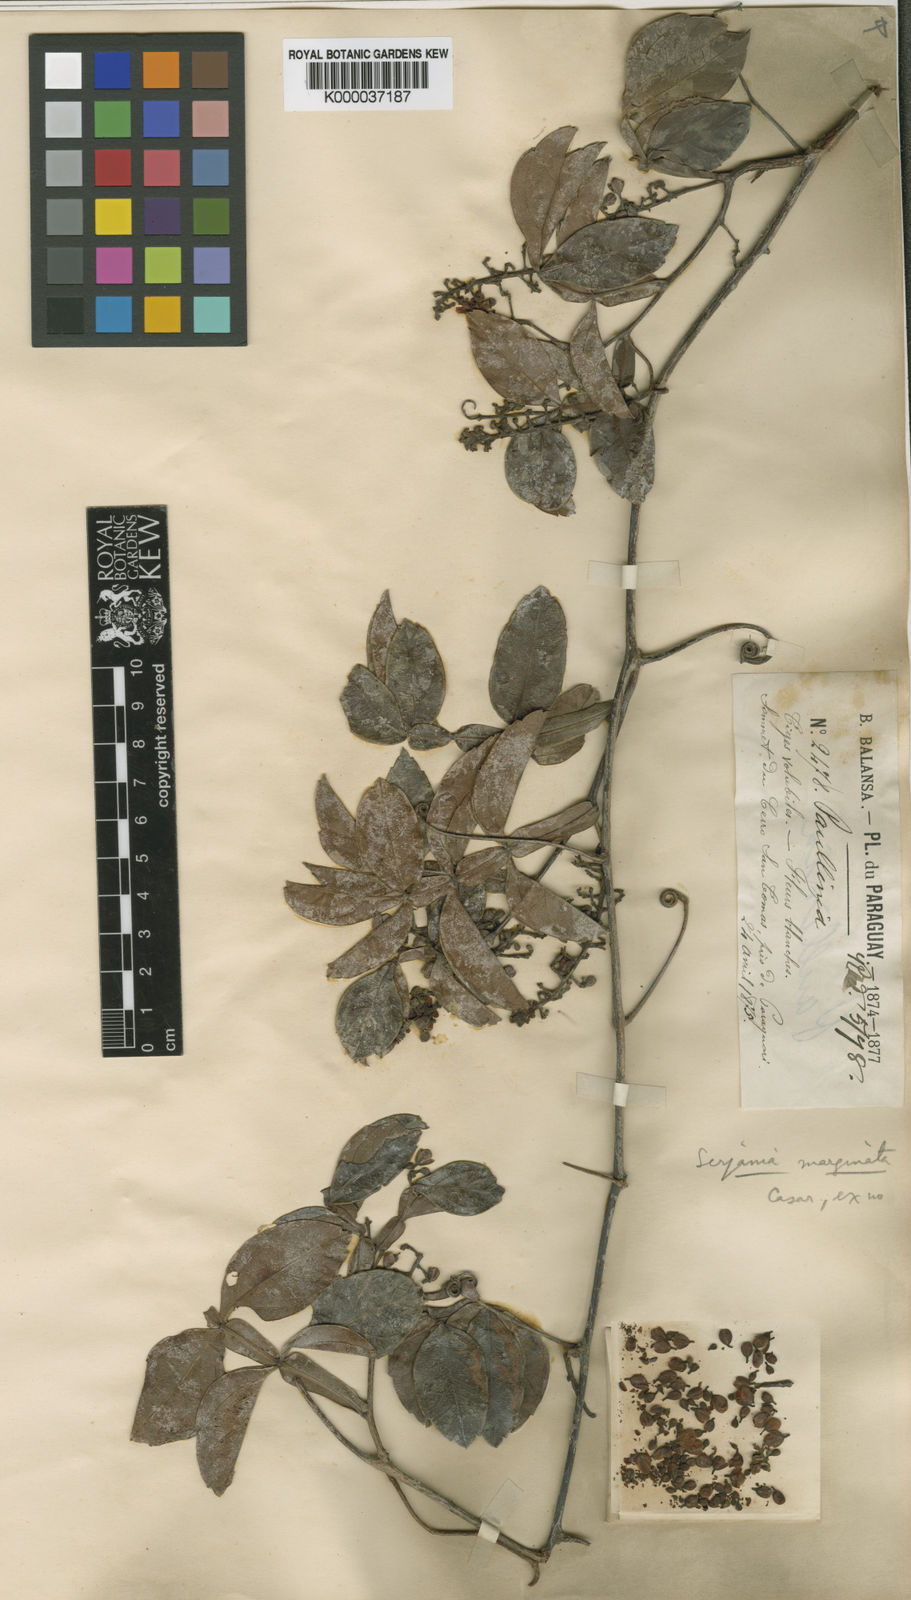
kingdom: Plantae
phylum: Tracheophyta
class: Magnoliopsida
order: Sapindales
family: Sapindaceae
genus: Serjania
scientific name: Serjania marginata
